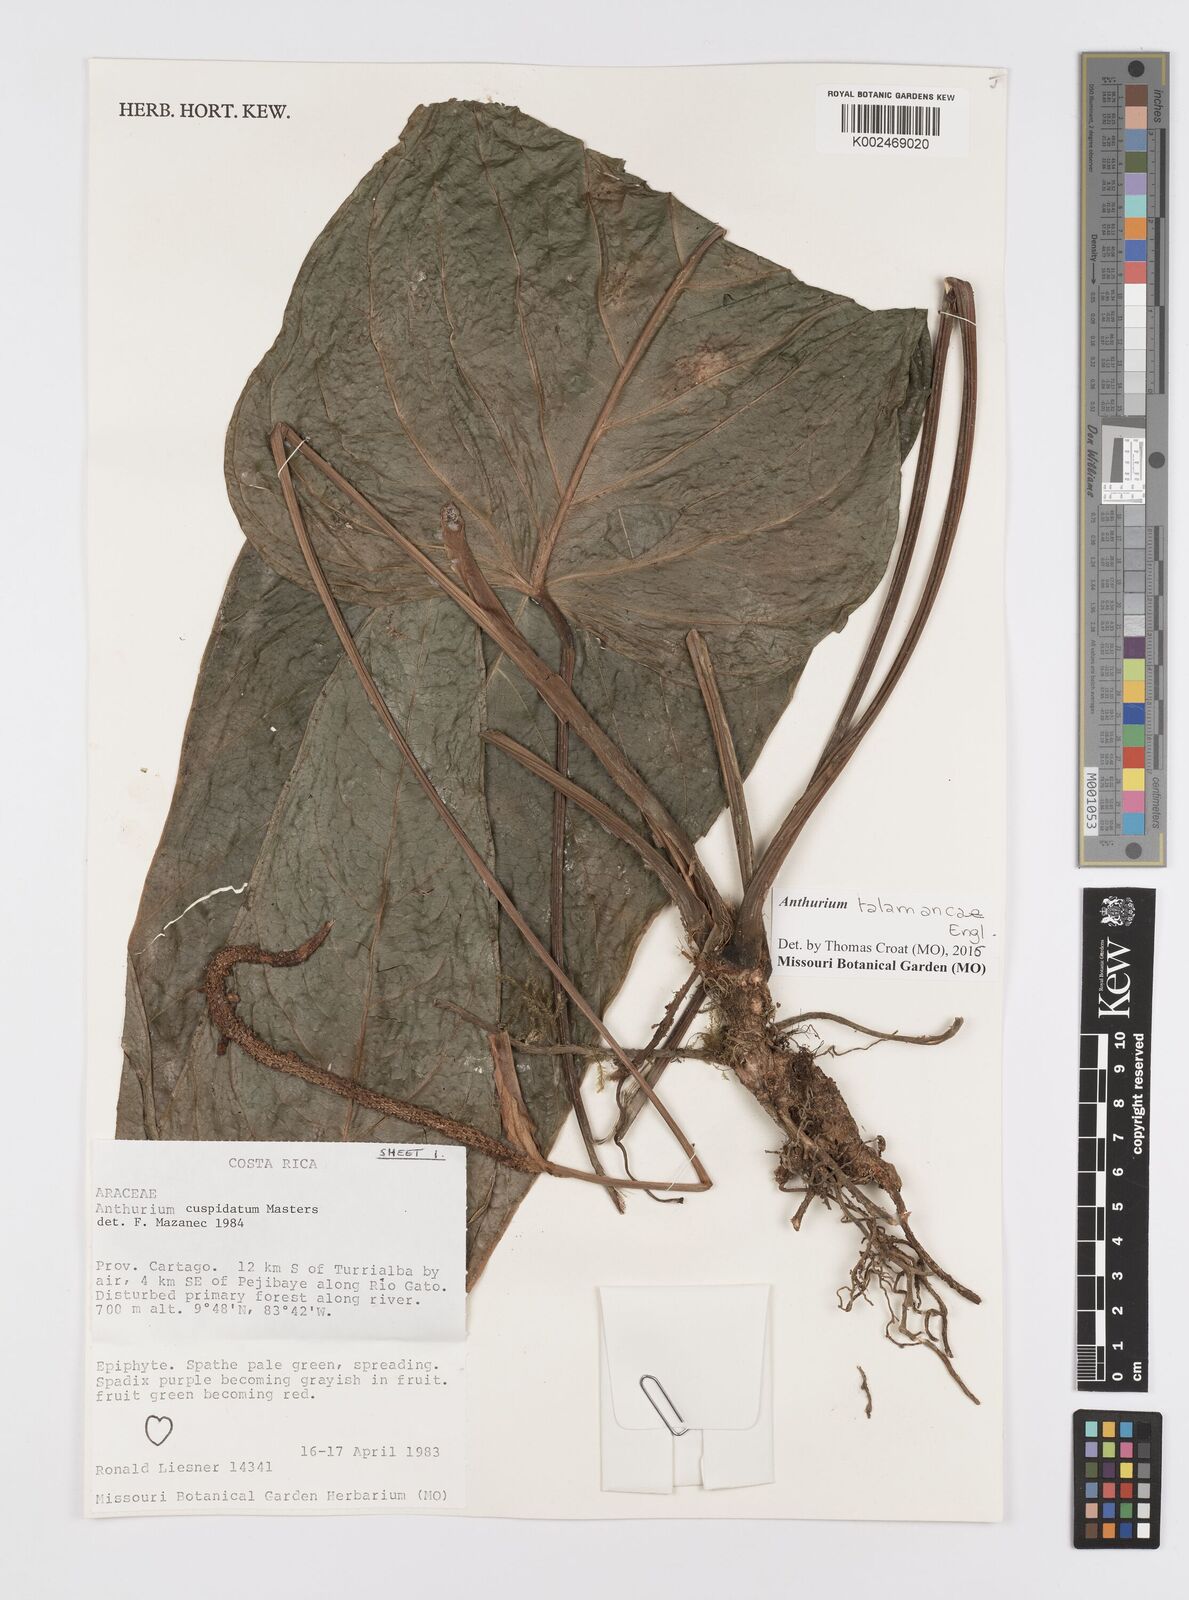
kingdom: Plantae
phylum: Tracheophyta
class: Liliopsida
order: Alismatales
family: Araceae
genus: Anthurium
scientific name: Anthurium cuspidatum
